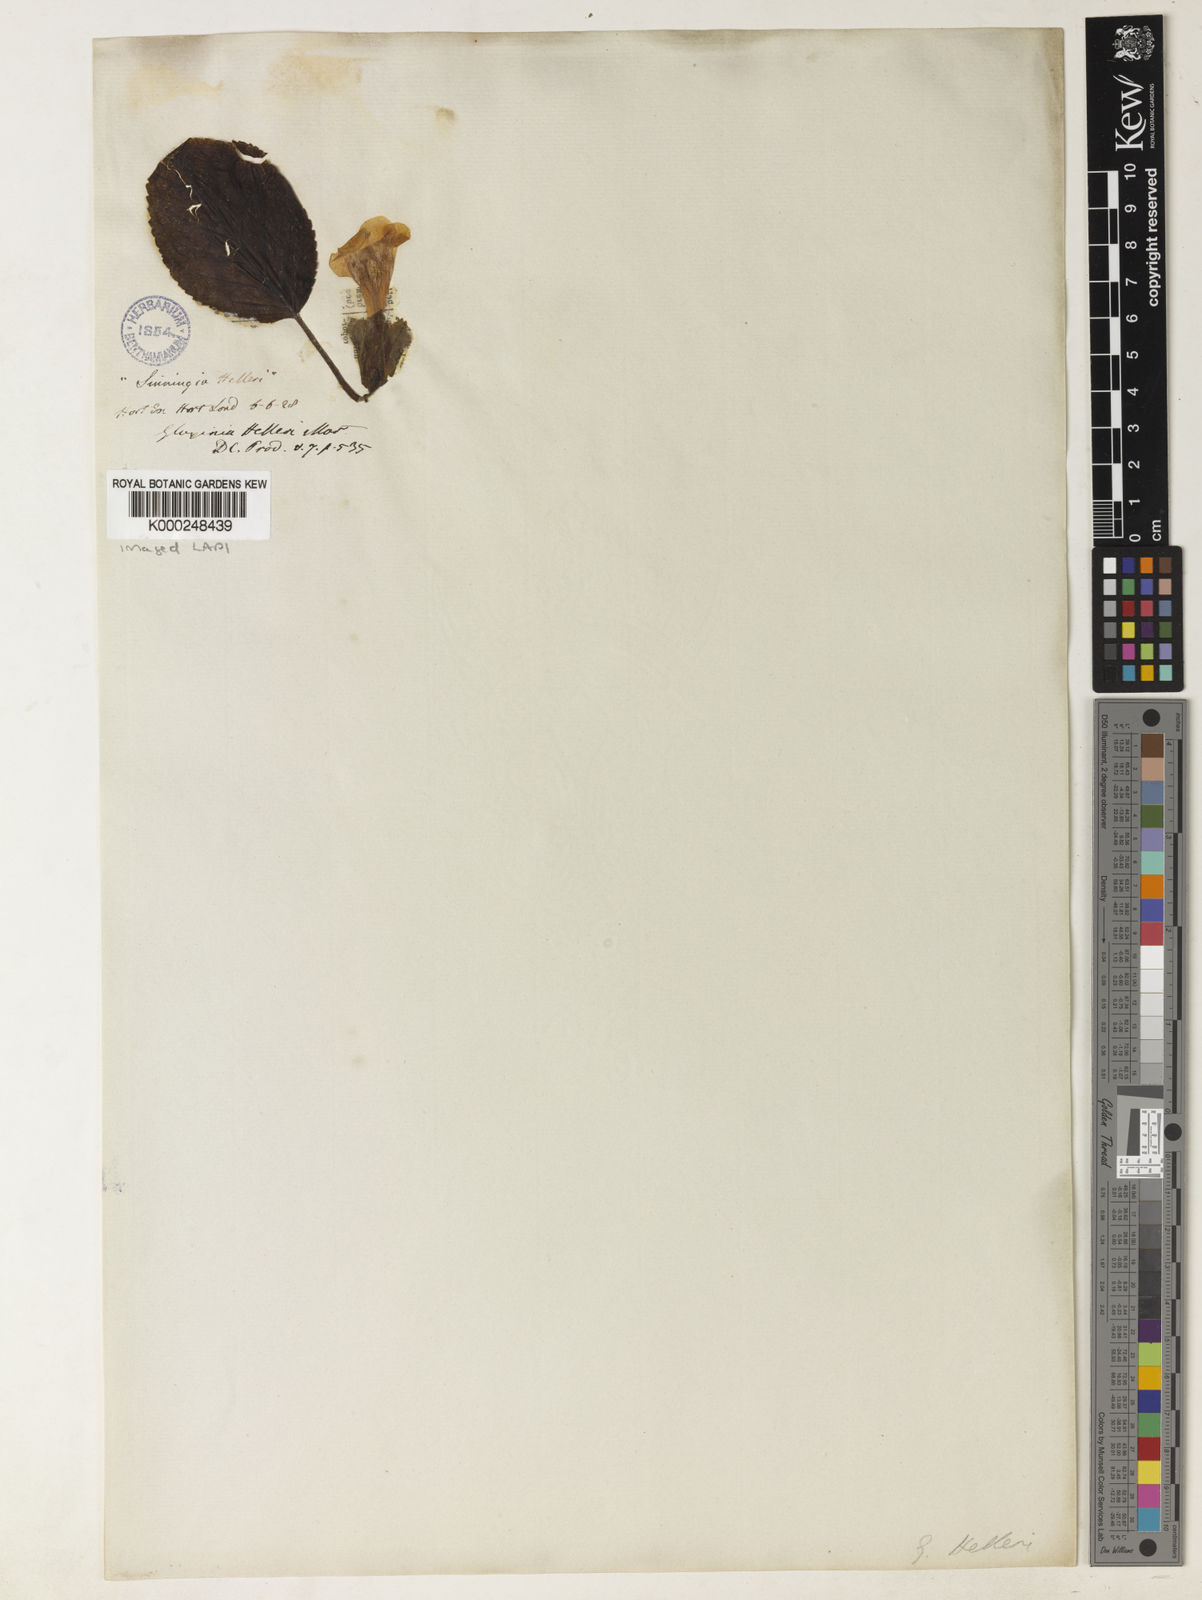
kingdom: Plantae
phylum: Tracheophyta
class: Magnoliopsida
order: Lamiales
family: Gesneriaceae
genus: Sinningia
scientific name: Sinningia helleri
